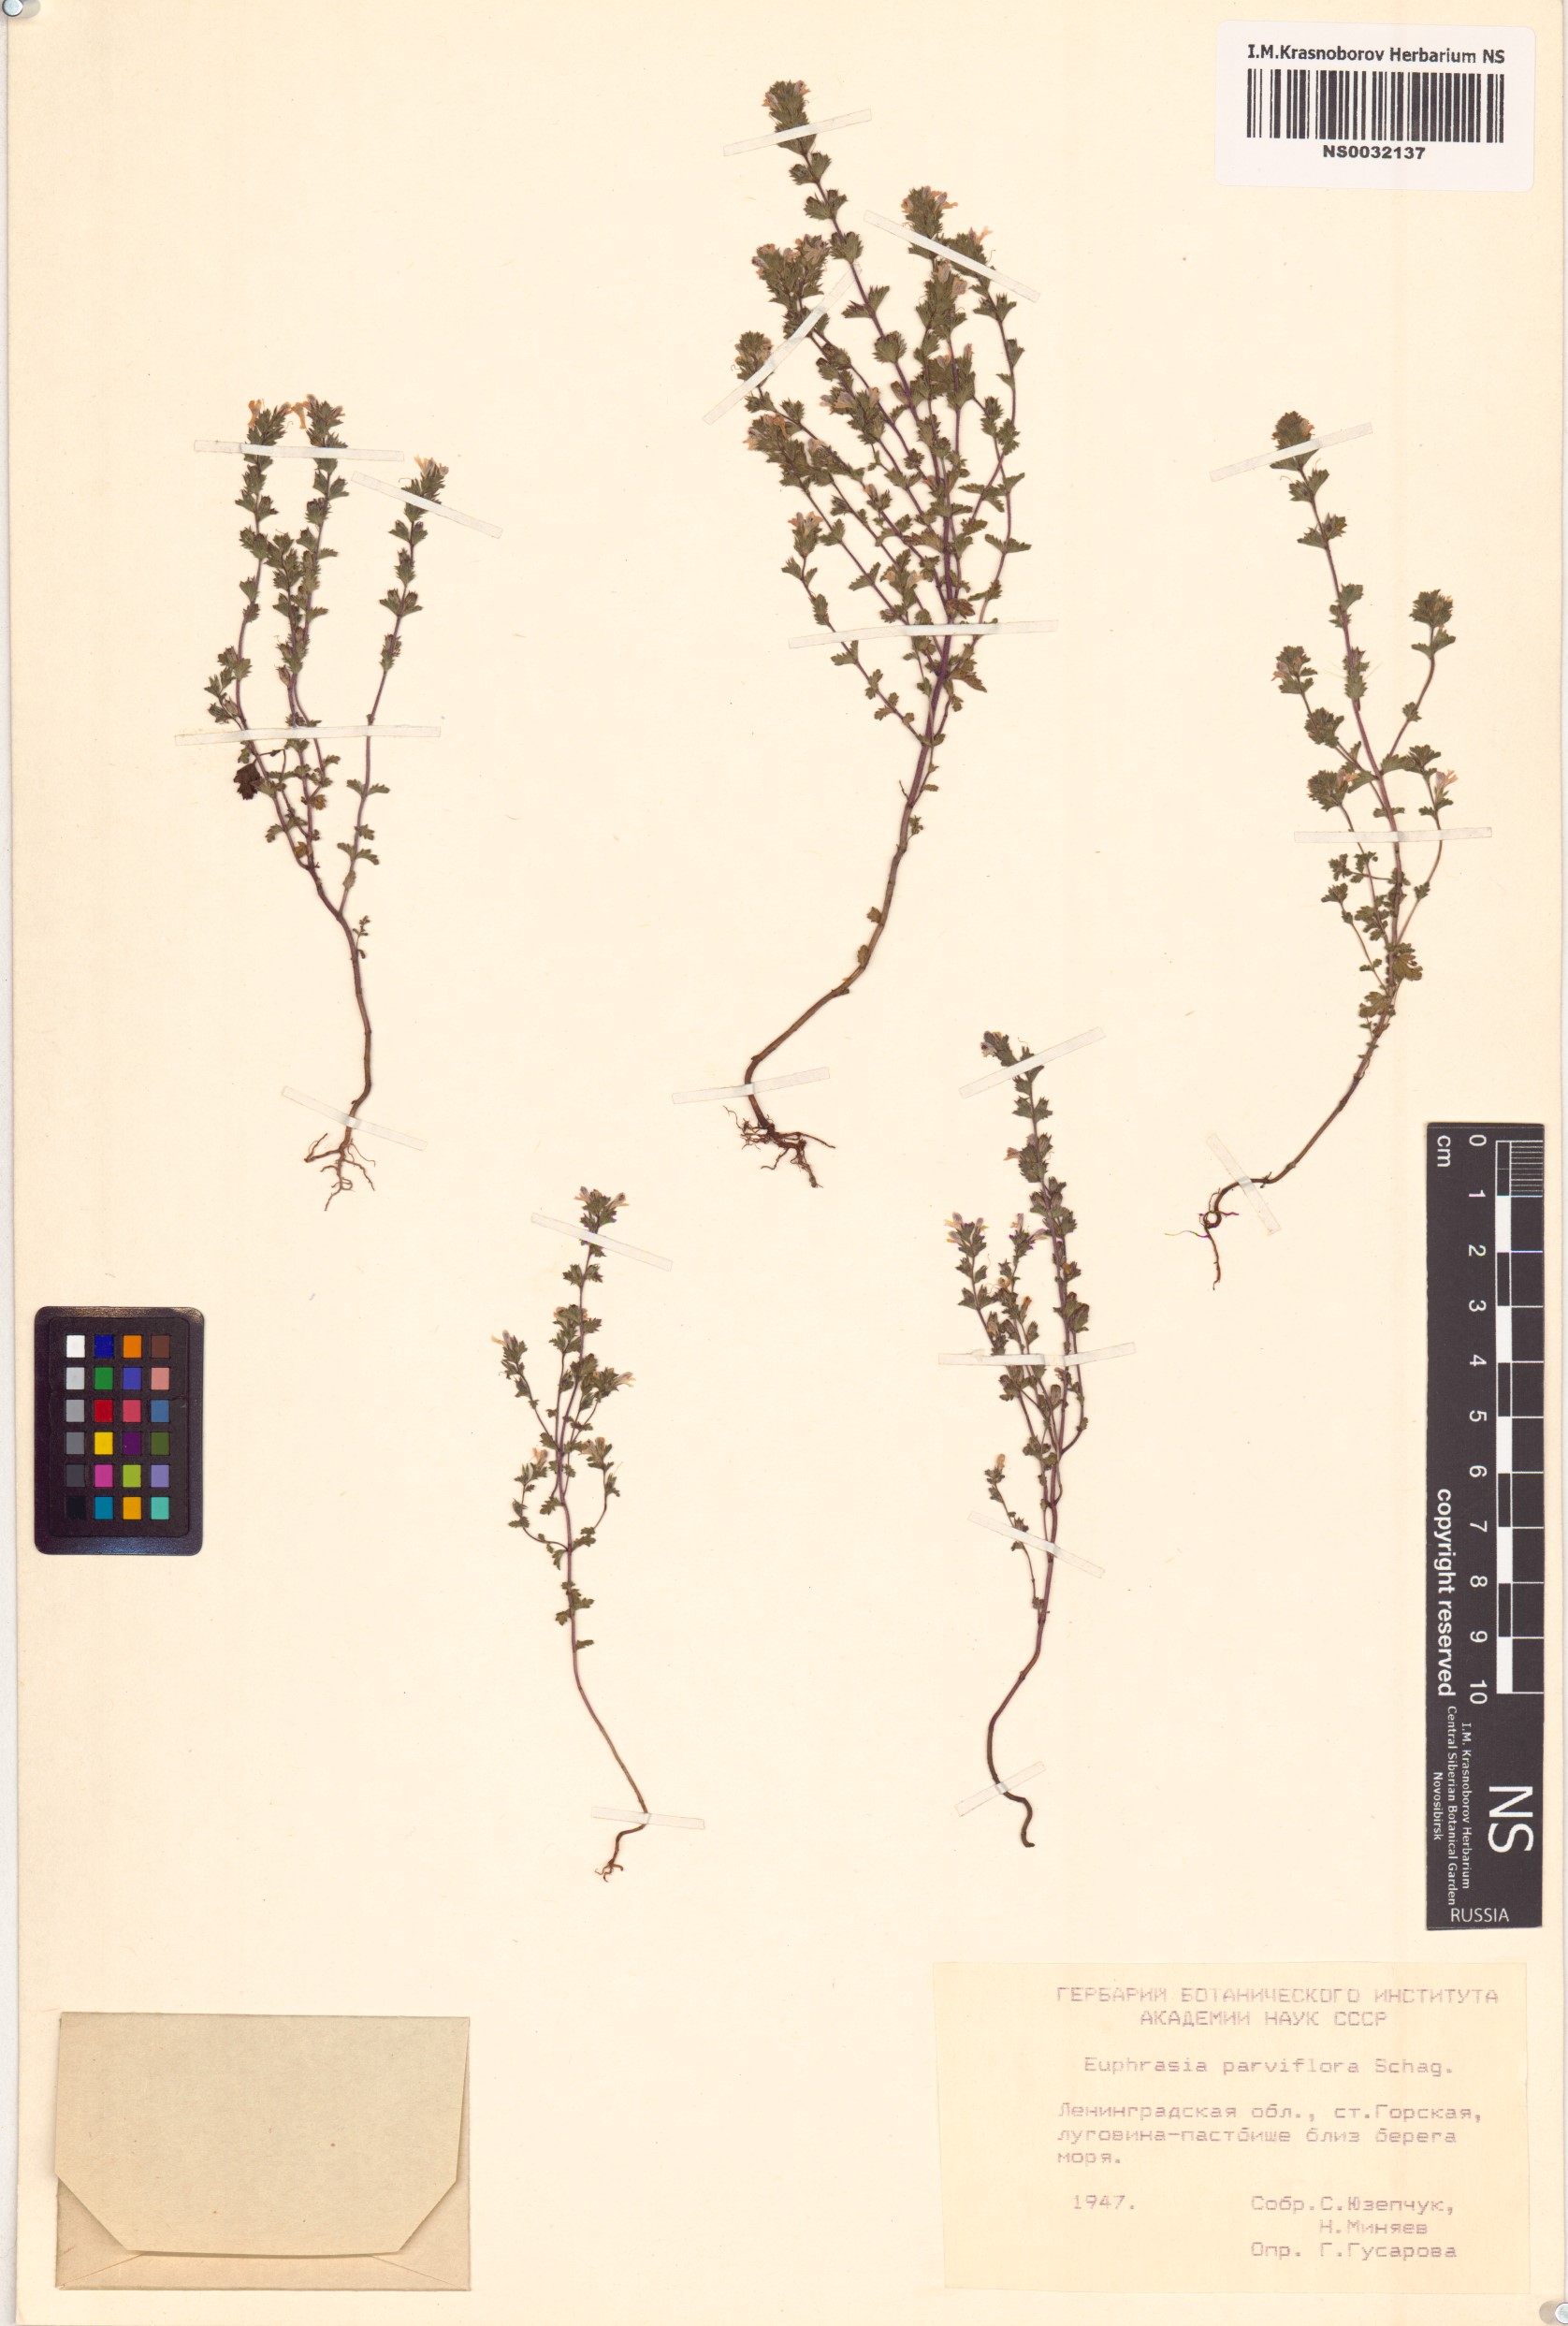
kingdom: Plantae
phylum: Tracheophyta
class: Magnoliopsida
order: Lamiales
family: Orobanchaceae
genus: Euphrasia
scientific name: Euphrasia micrantha
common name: Northern eyebright
